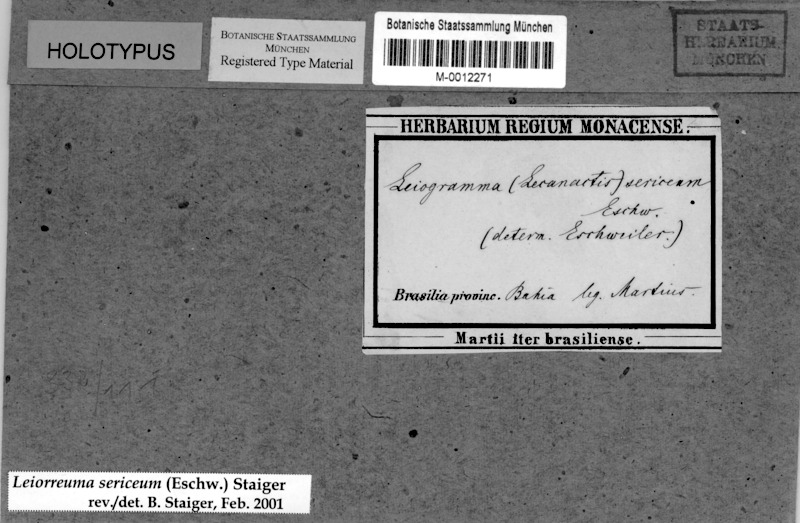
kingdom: Fungi
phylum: Ascomycota
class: Lecanoromycetes
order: Ostropales
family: Graphidaceae
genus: Leiorreuma
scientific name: Leiorreuma sericeum
